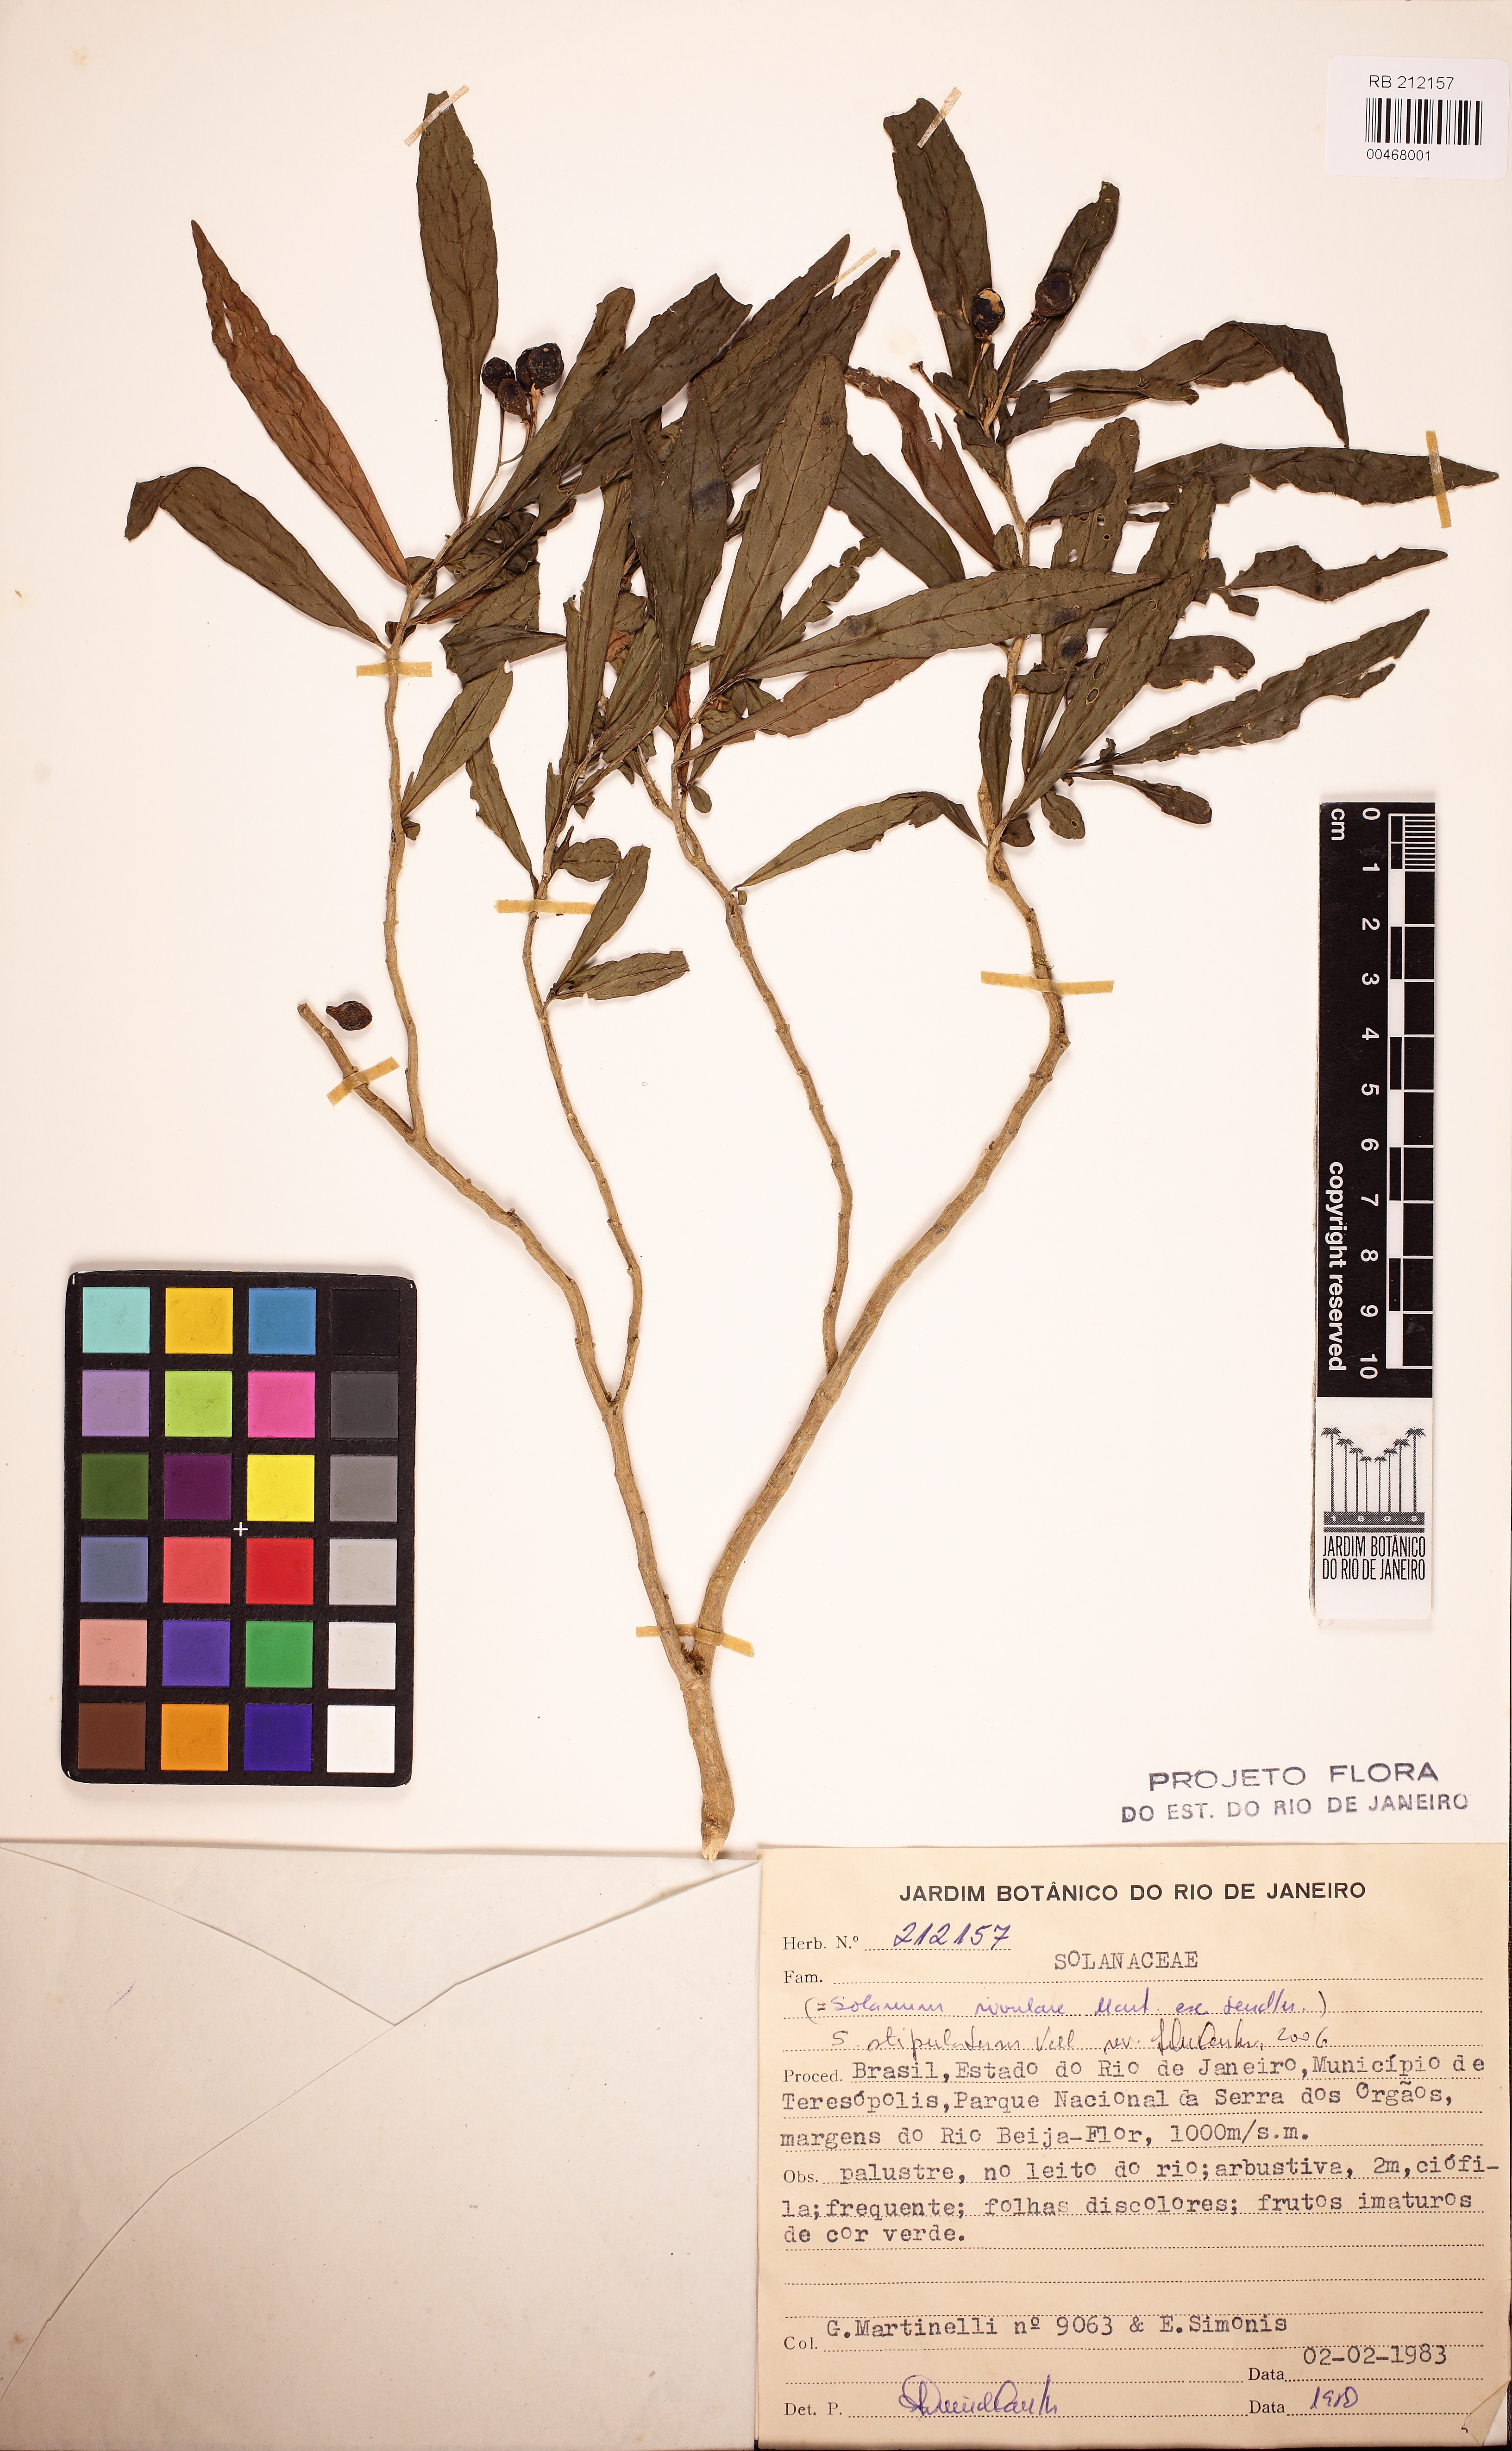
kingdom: Plantae
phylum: Tracheophyta
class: Magnoliopsida
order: Solanales
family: Solanaceae
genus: Solanum
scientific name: Solanum stipulatum
